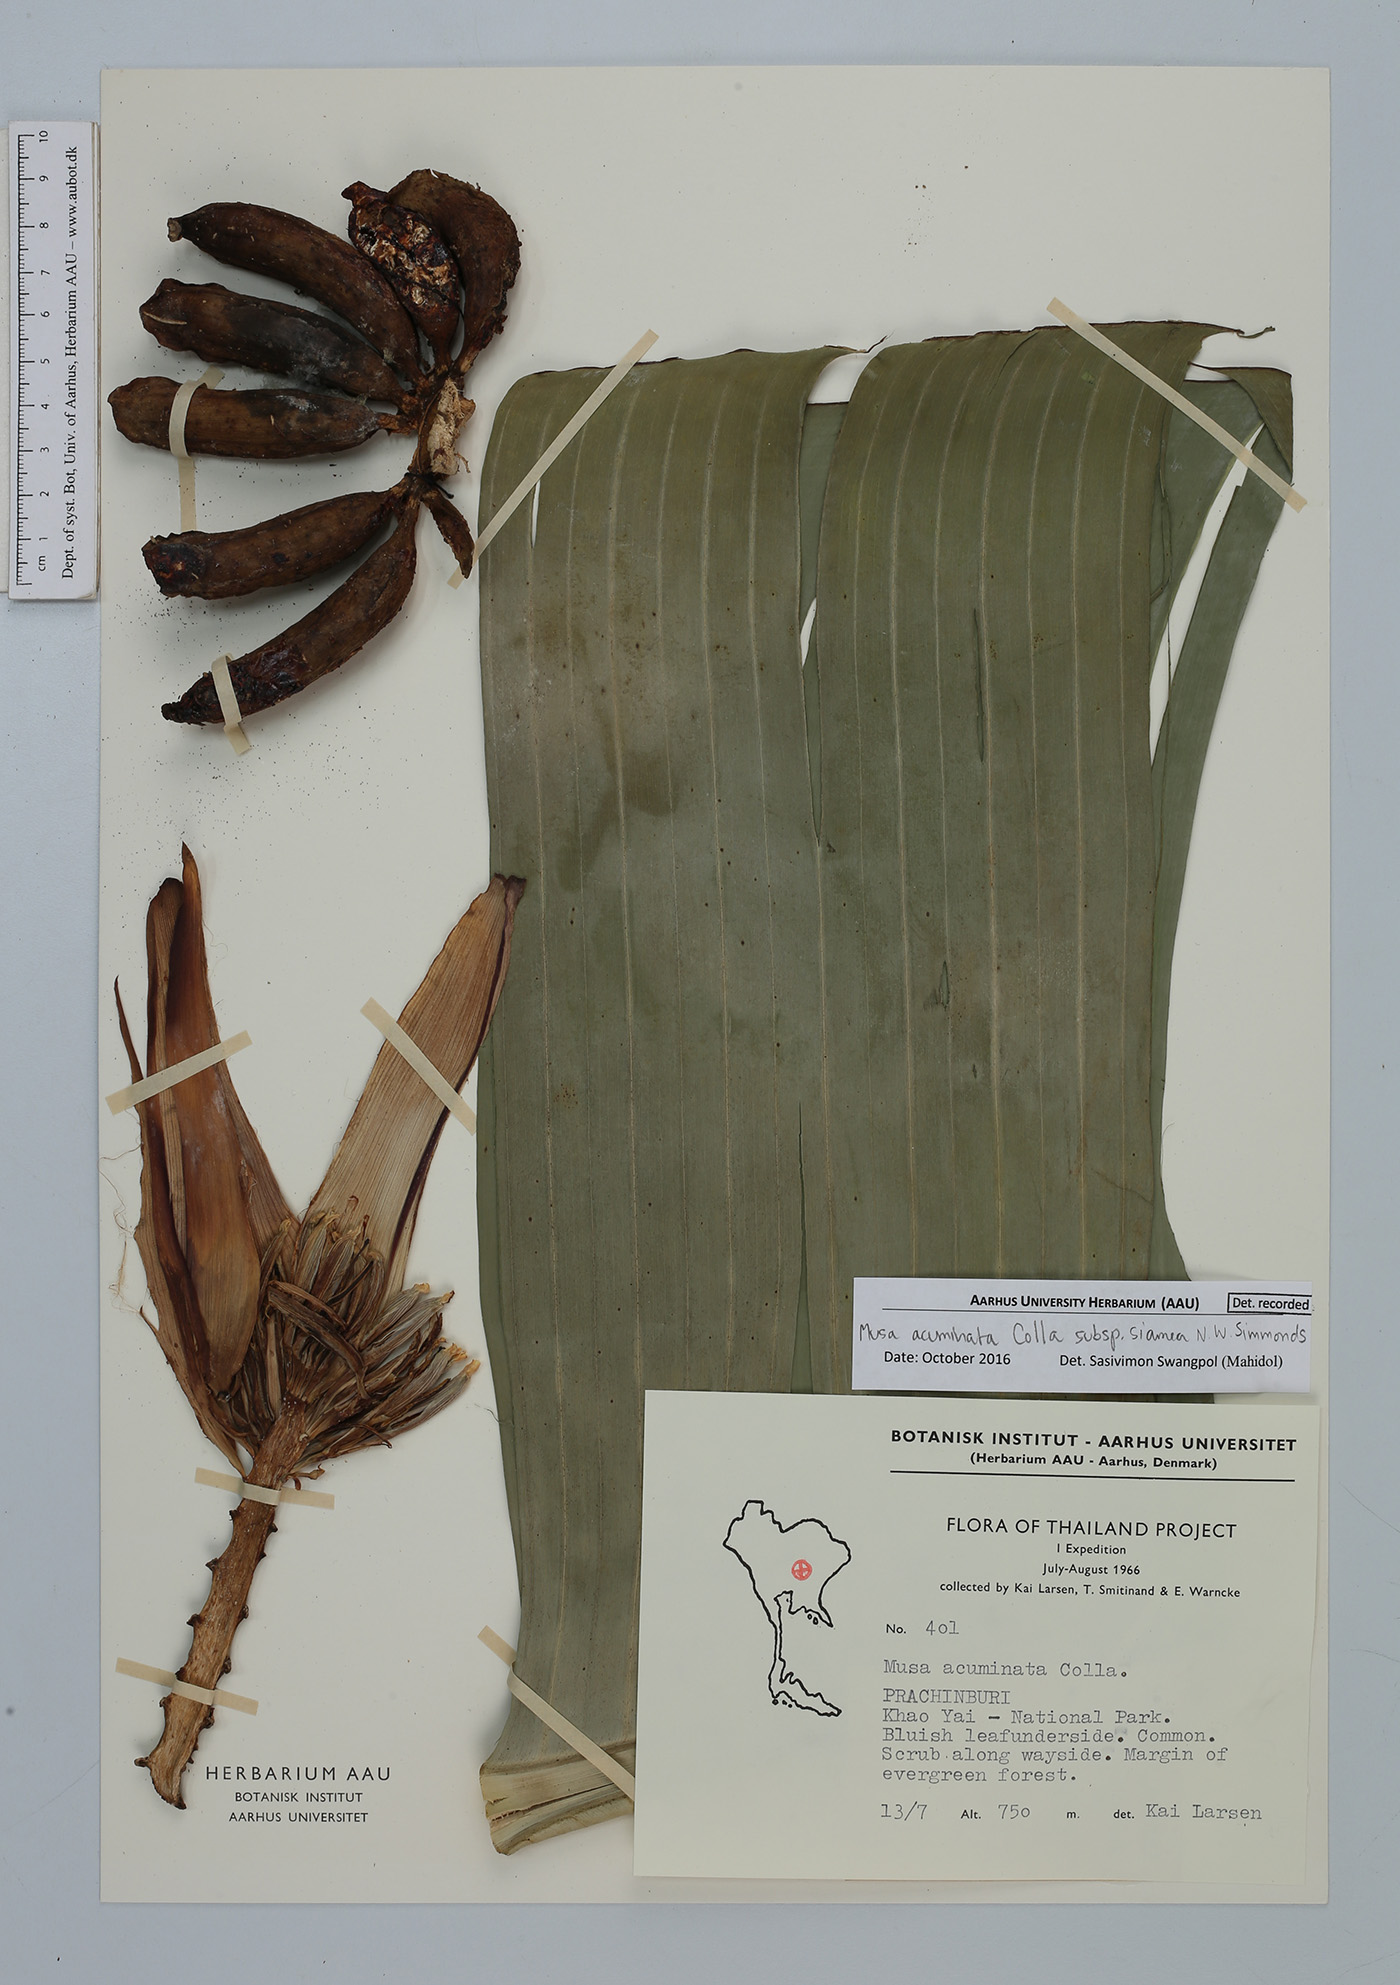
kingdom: Plantae
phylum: Tracheophyta
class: Liliopsida
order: Zingiberales
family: Musaceae
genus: Musa
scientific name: Musa acuminata
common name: Edible banana
